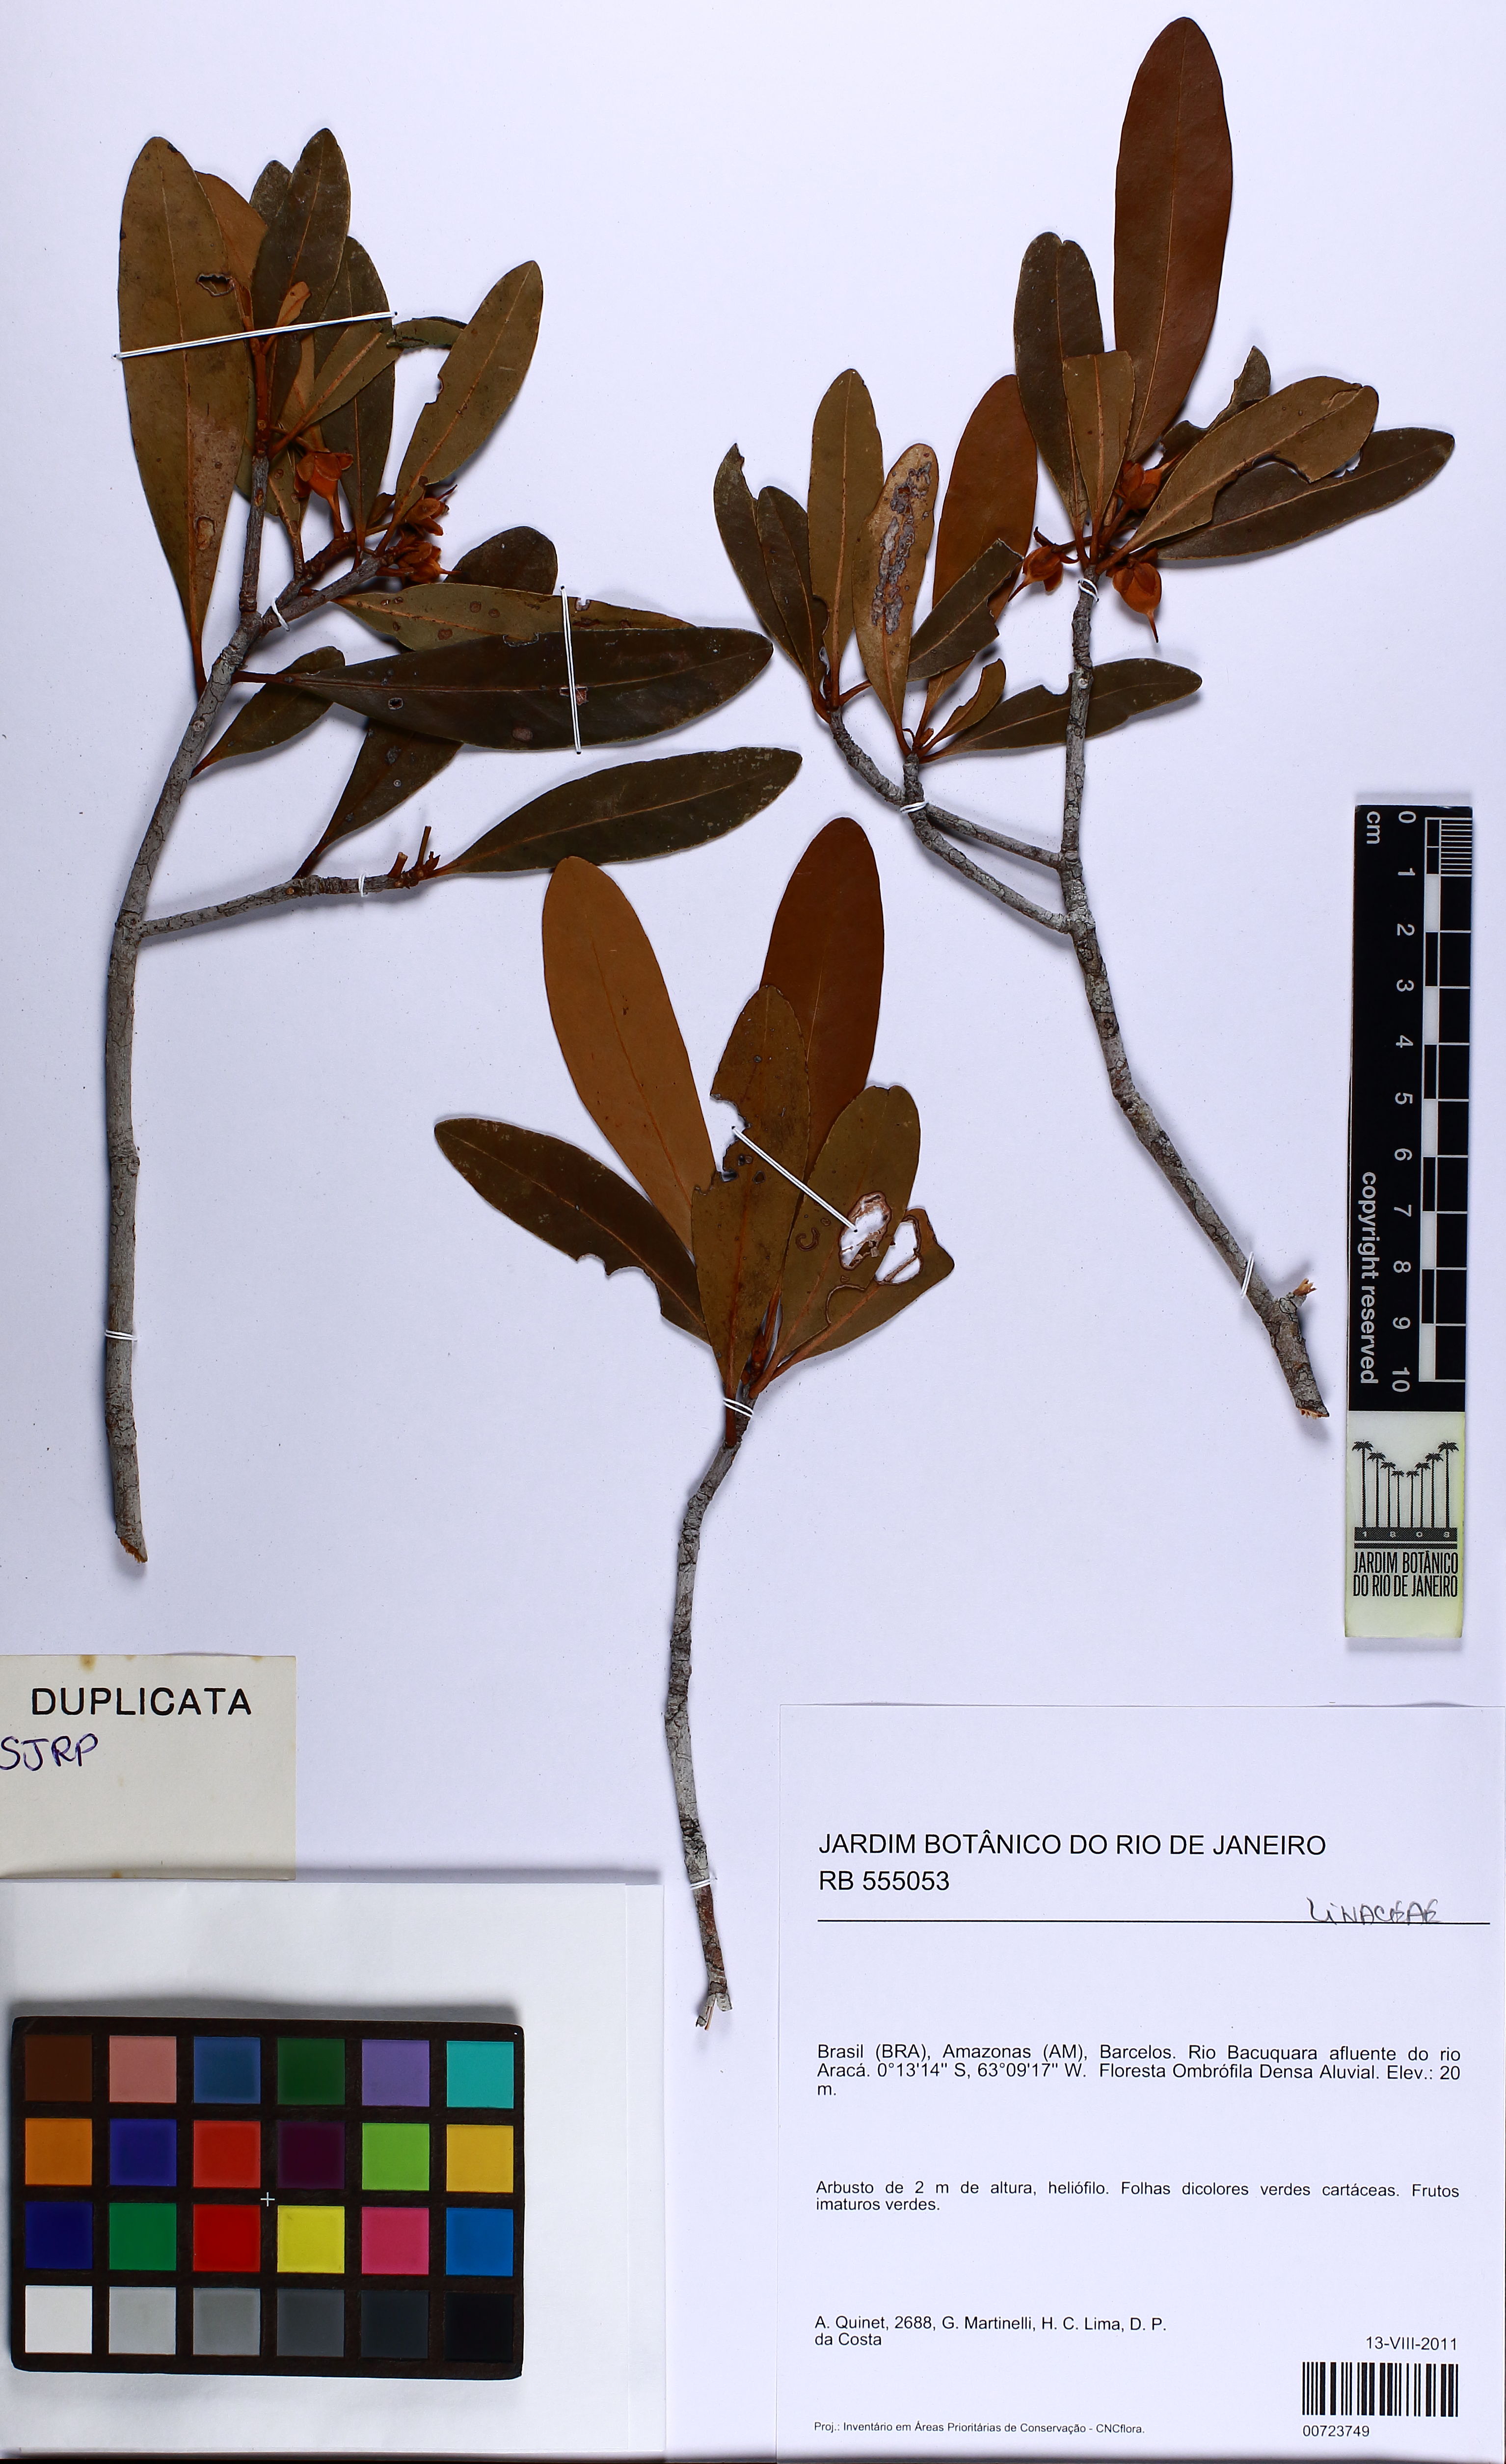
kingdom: Plantae
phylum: Tracheophyta
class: Magnoliopsida
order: Ericales
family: Pentaphylacaceae
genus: Ternstroemia
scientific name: Ternstroemia
